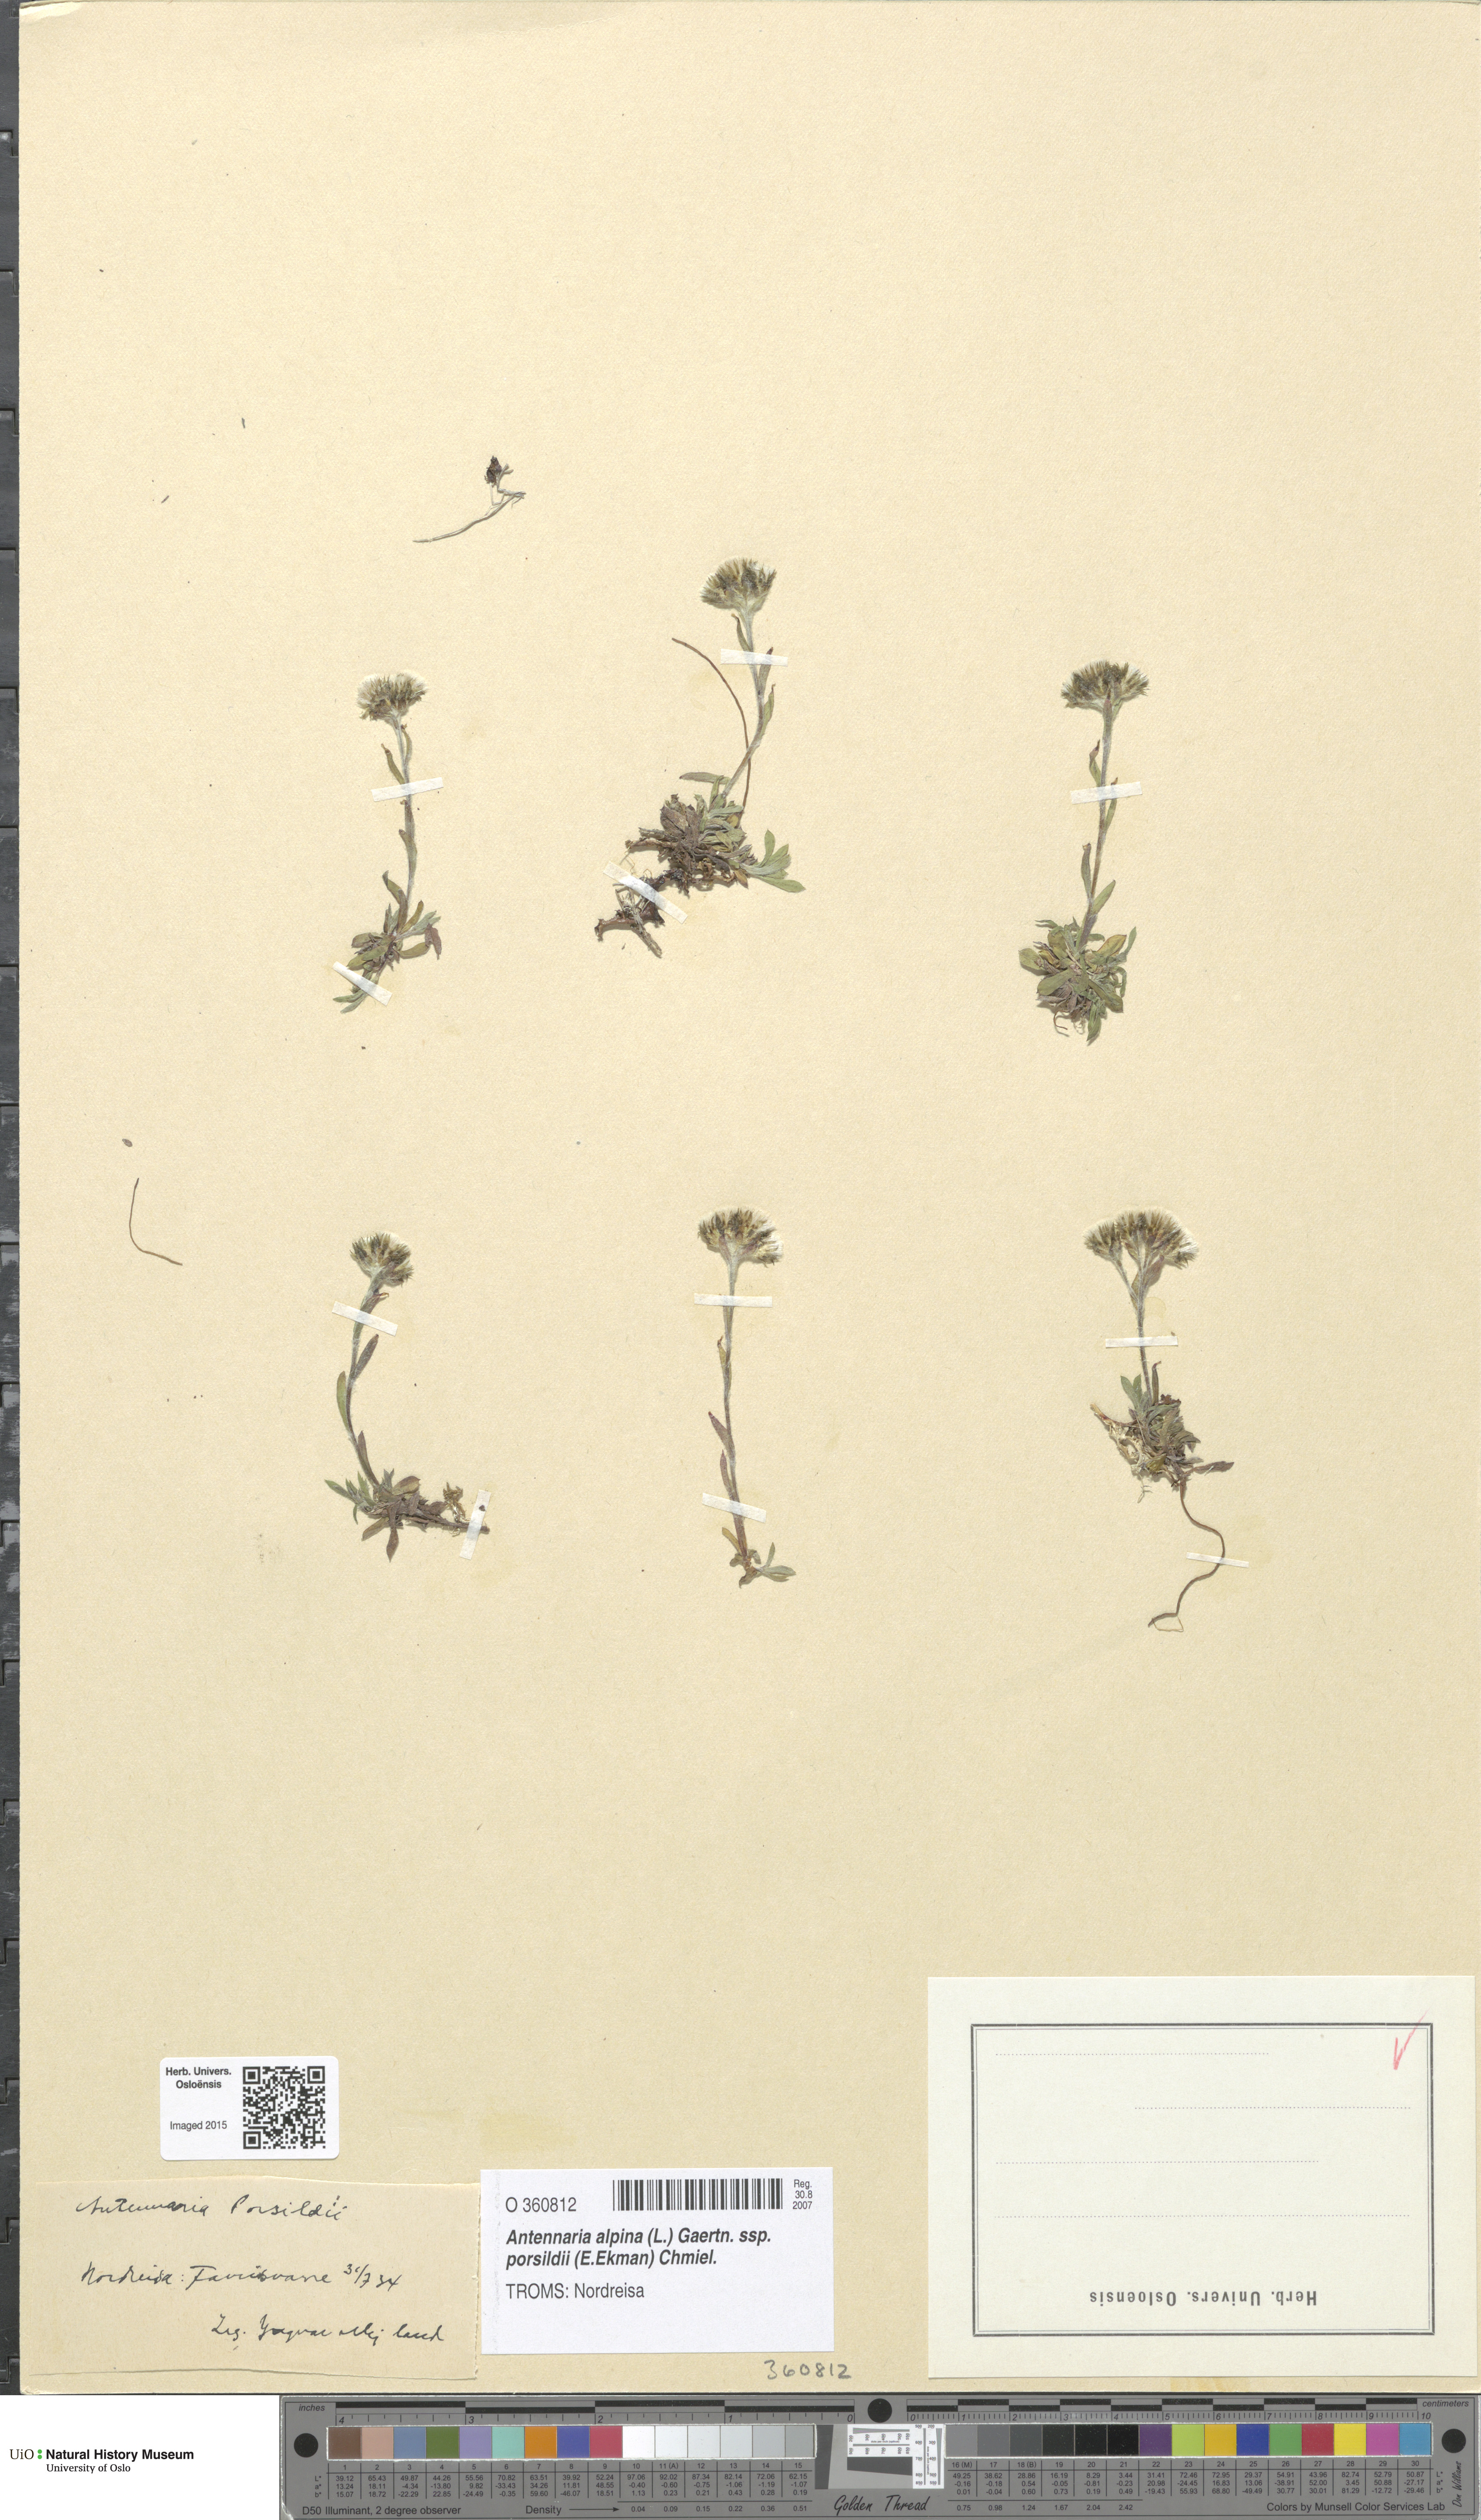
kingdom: Plantae
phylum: Tracheophyta
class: Magnoliopsida
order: Asterales
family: Asteraceae
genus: Antennaria
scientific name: Antennaria porsildii
